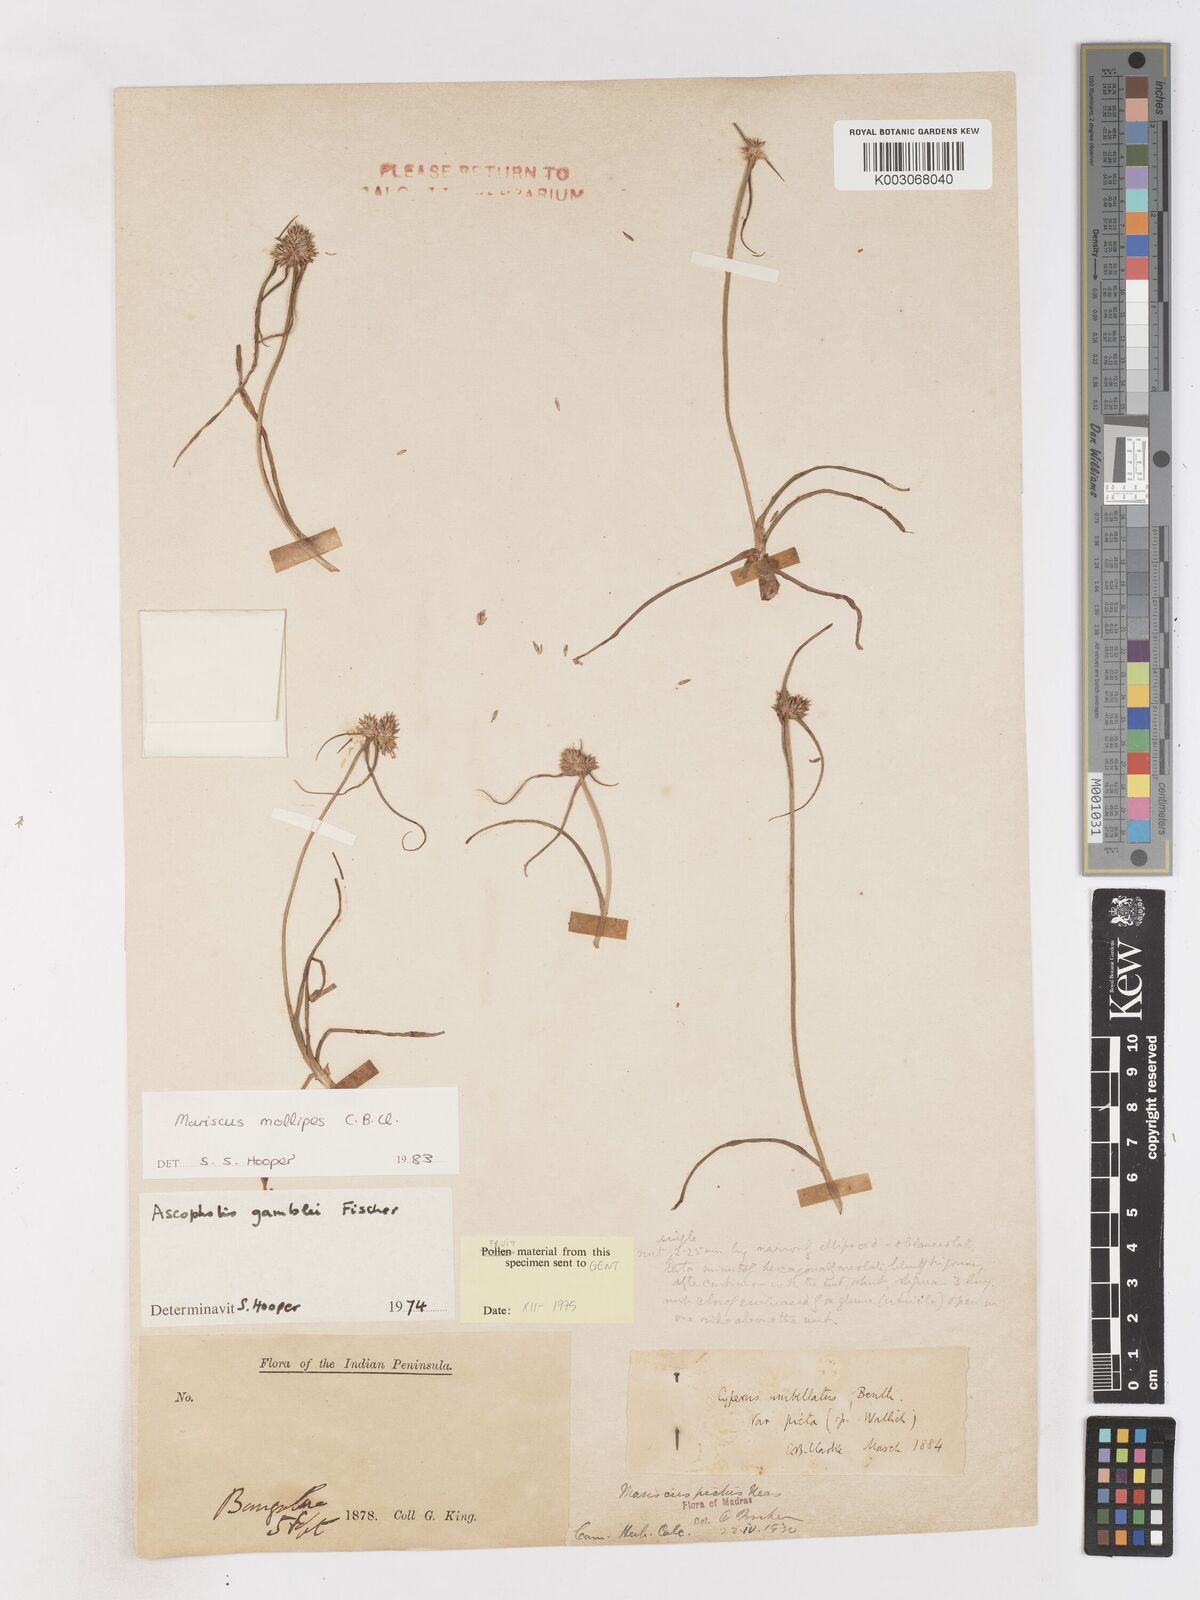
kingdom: Plantae
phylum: Tracheophyta
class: Liliopsida
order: Poales
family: Cyperaceae
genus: Cyperus
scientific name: Cyperus mollipes
